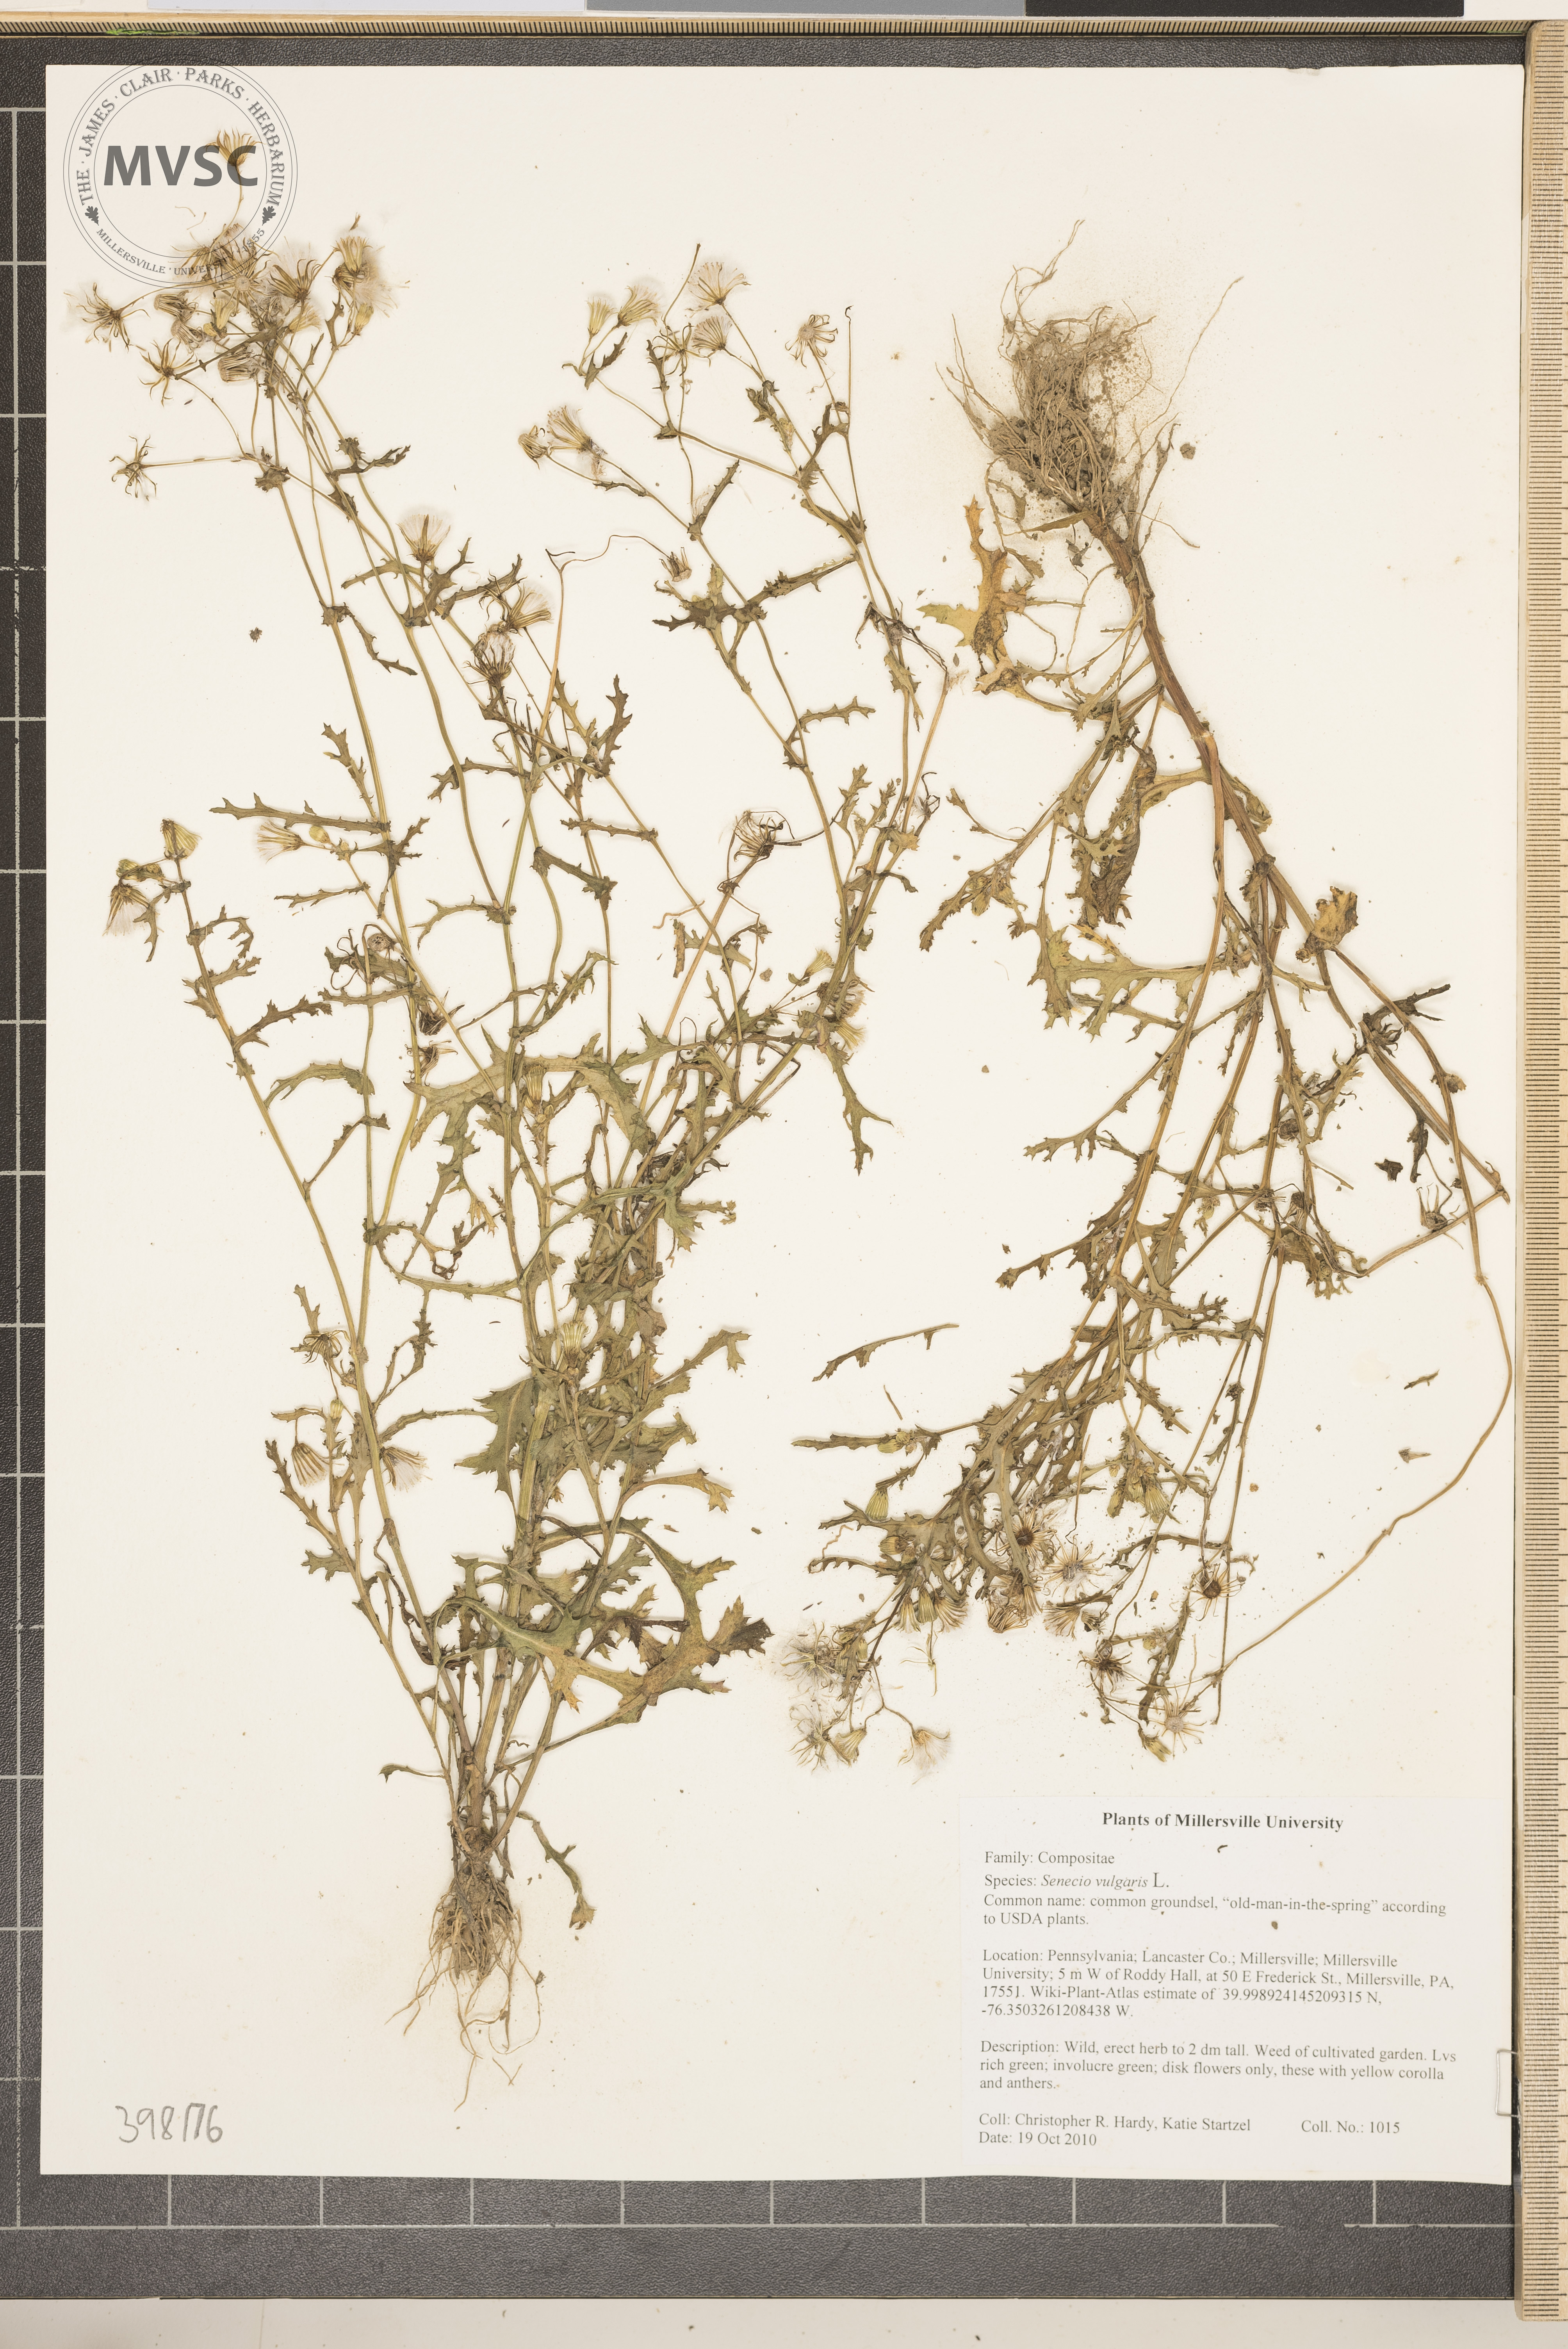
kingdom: Plantae
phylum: Tracheophyta
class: Magnoliopsida
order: Asterales
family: Asteraceae
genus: Senecio
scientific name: Senecio vulgaris
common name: Common groundsel
